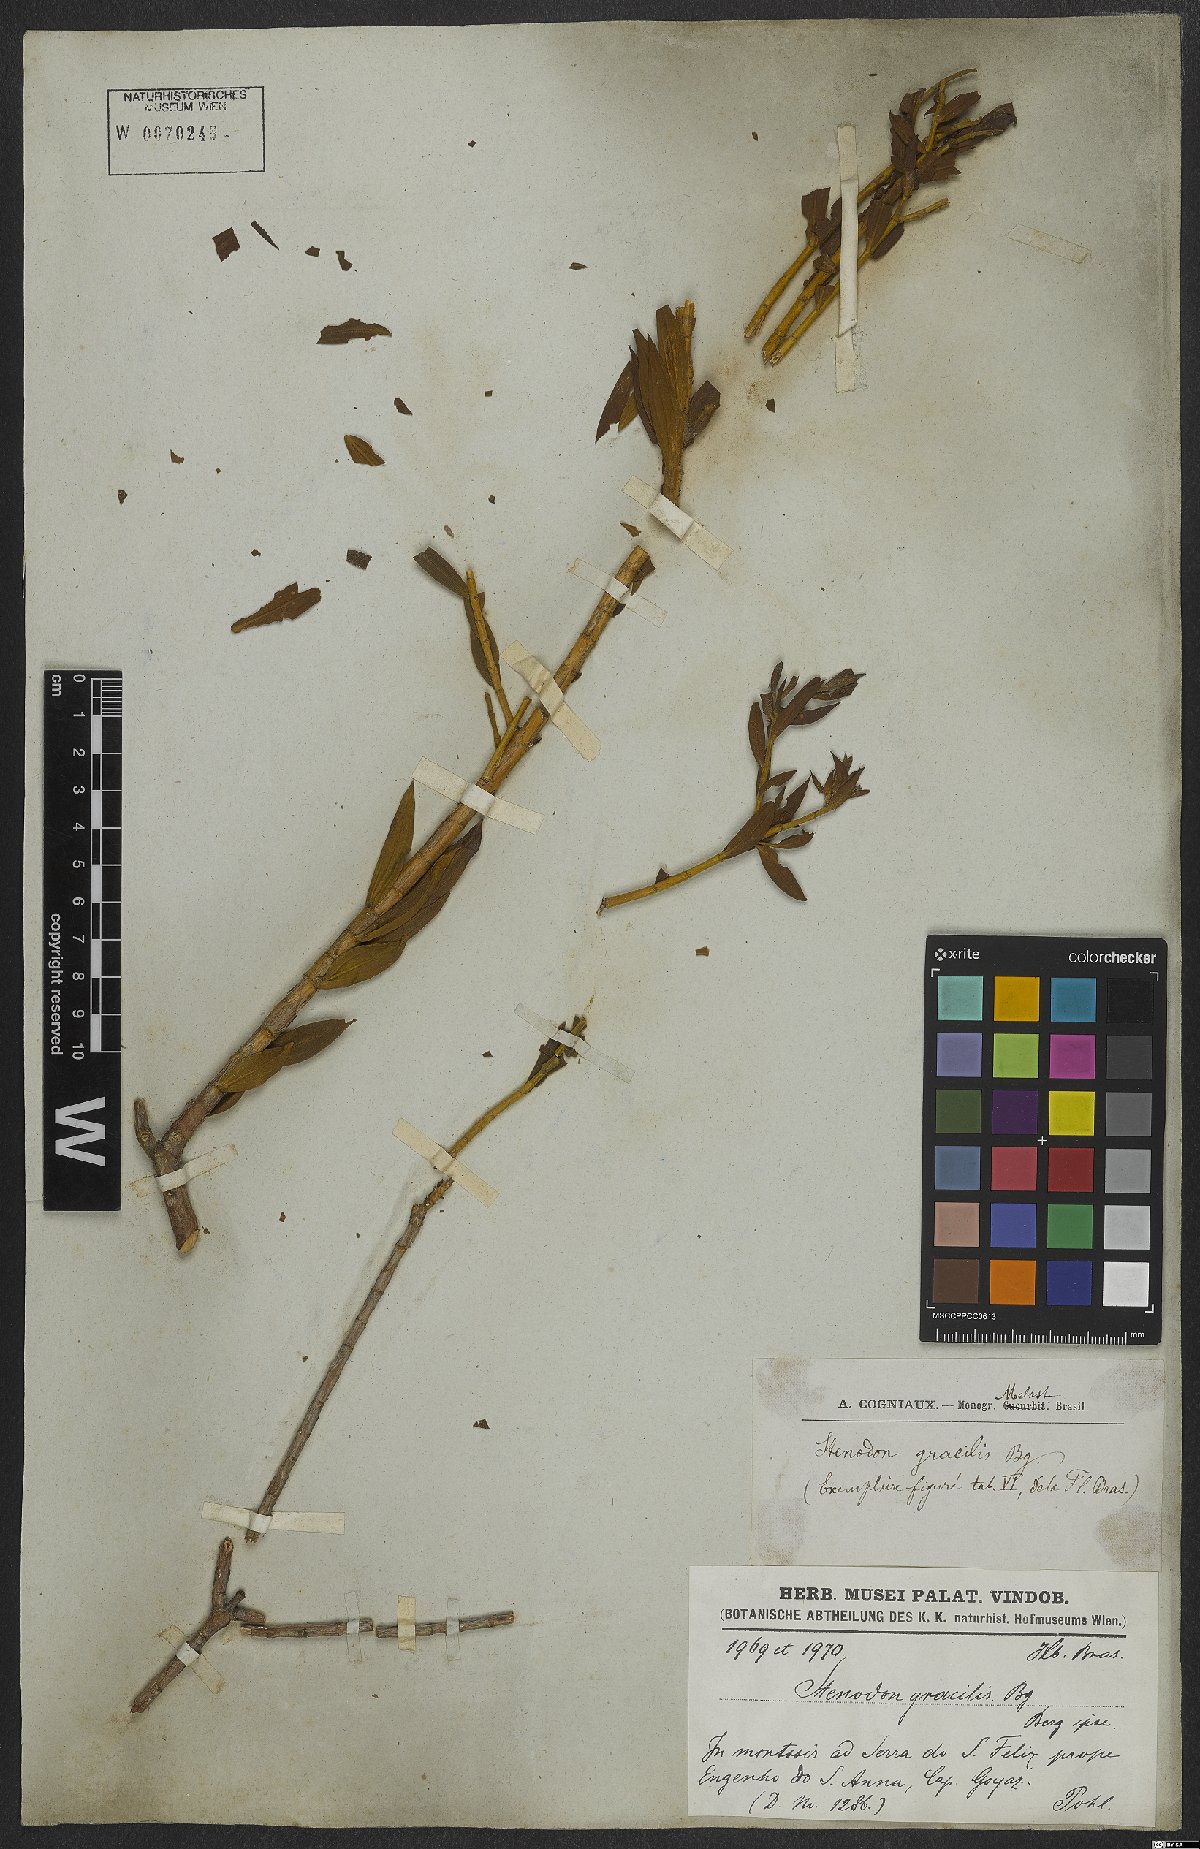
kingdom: Plantae
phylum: Tracheophyta
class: Magnoliopsida
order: Myrtales
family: Melastomataceae
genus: Microlicia
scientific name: Microlicia neogracilis
